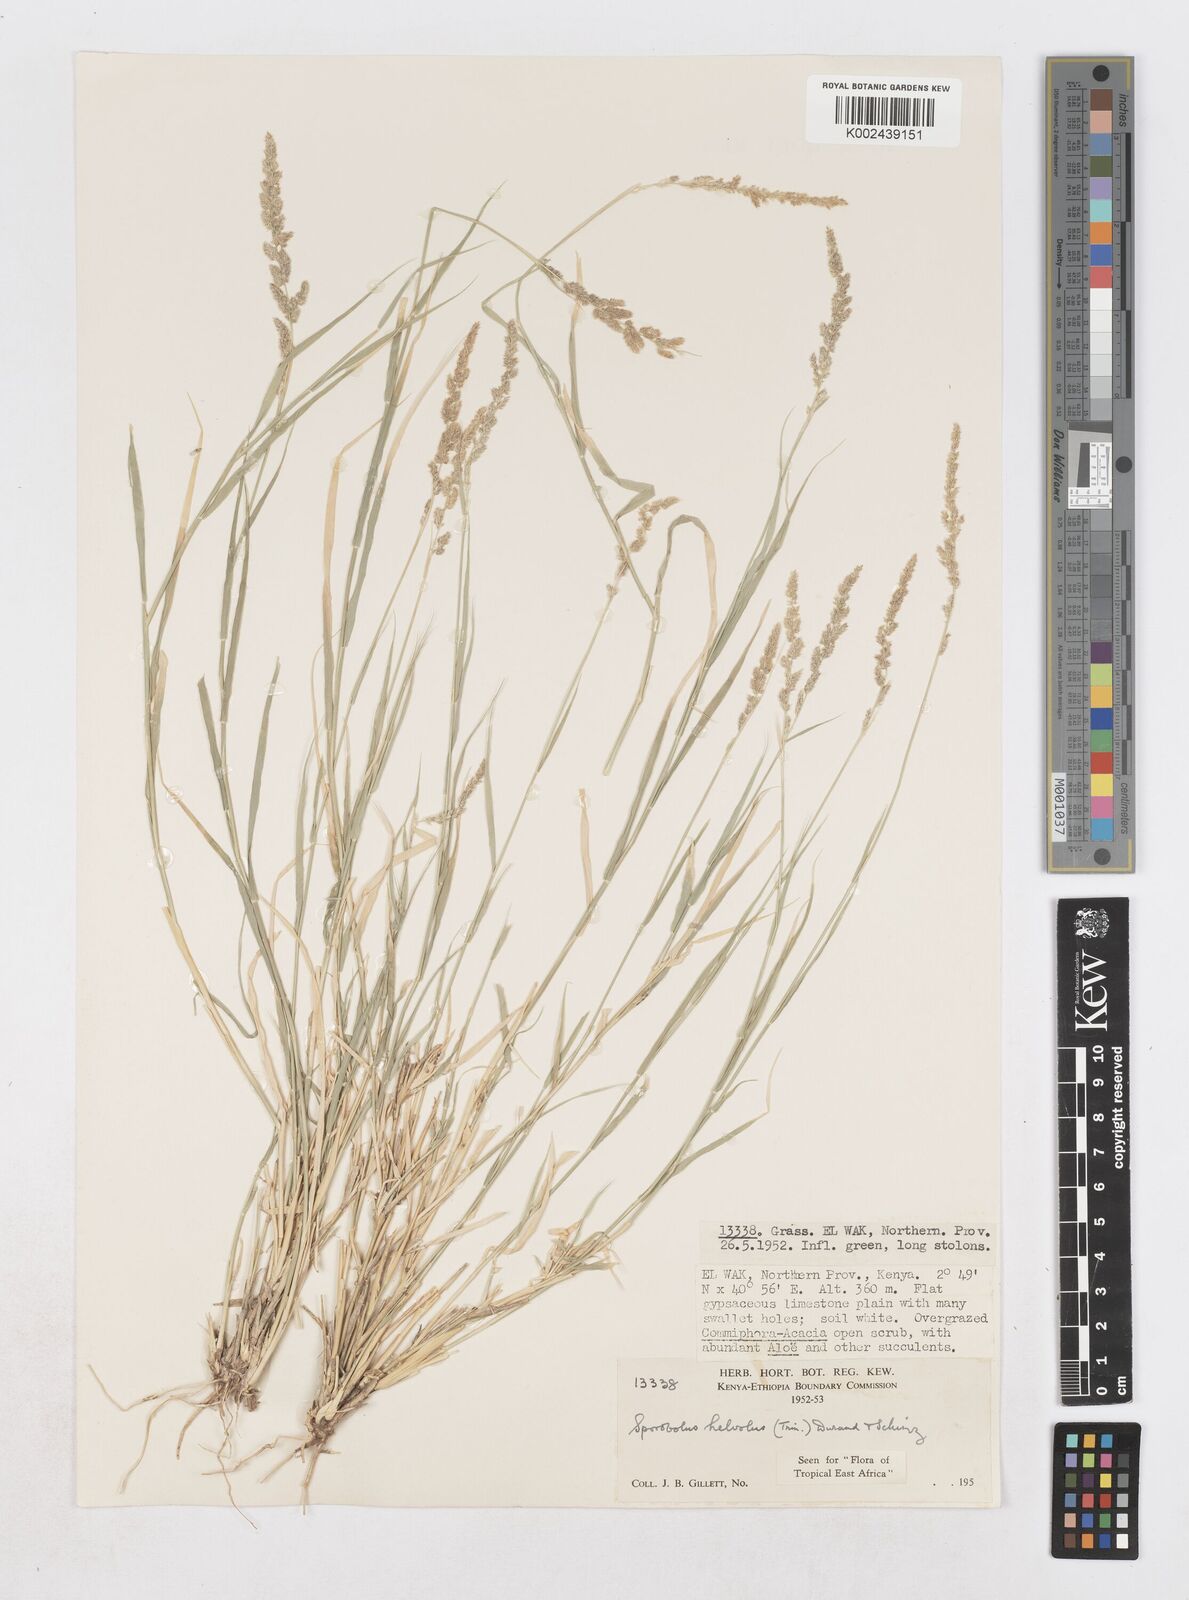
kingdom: Plantae
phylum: Tracheophyta
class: Liliopsida
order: Poales
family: Poaceae
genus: Sporobolus
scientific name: Sporobolus helvolus
